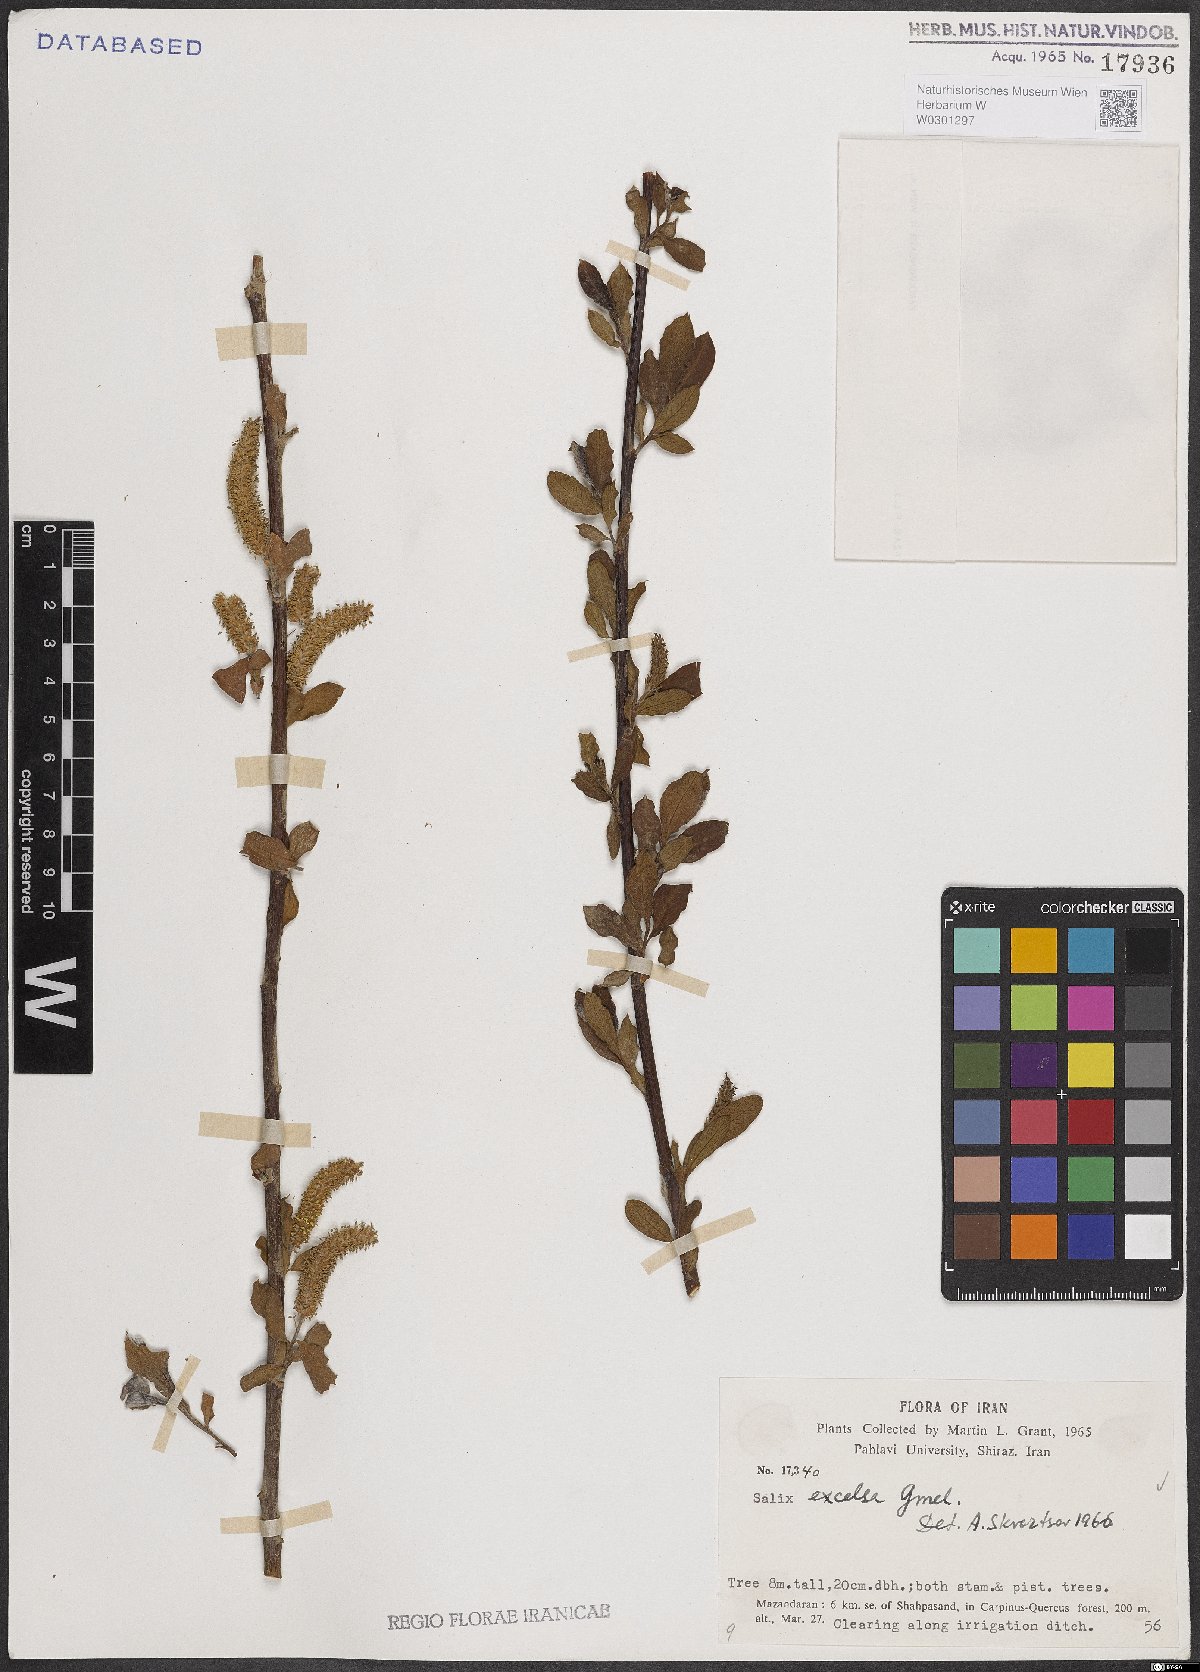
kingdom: Plantae
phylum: Tracheophyta
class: Magnoliopsida
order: Malpighiales
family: Salicaceae
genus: Salix
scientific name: Salix excelsa
